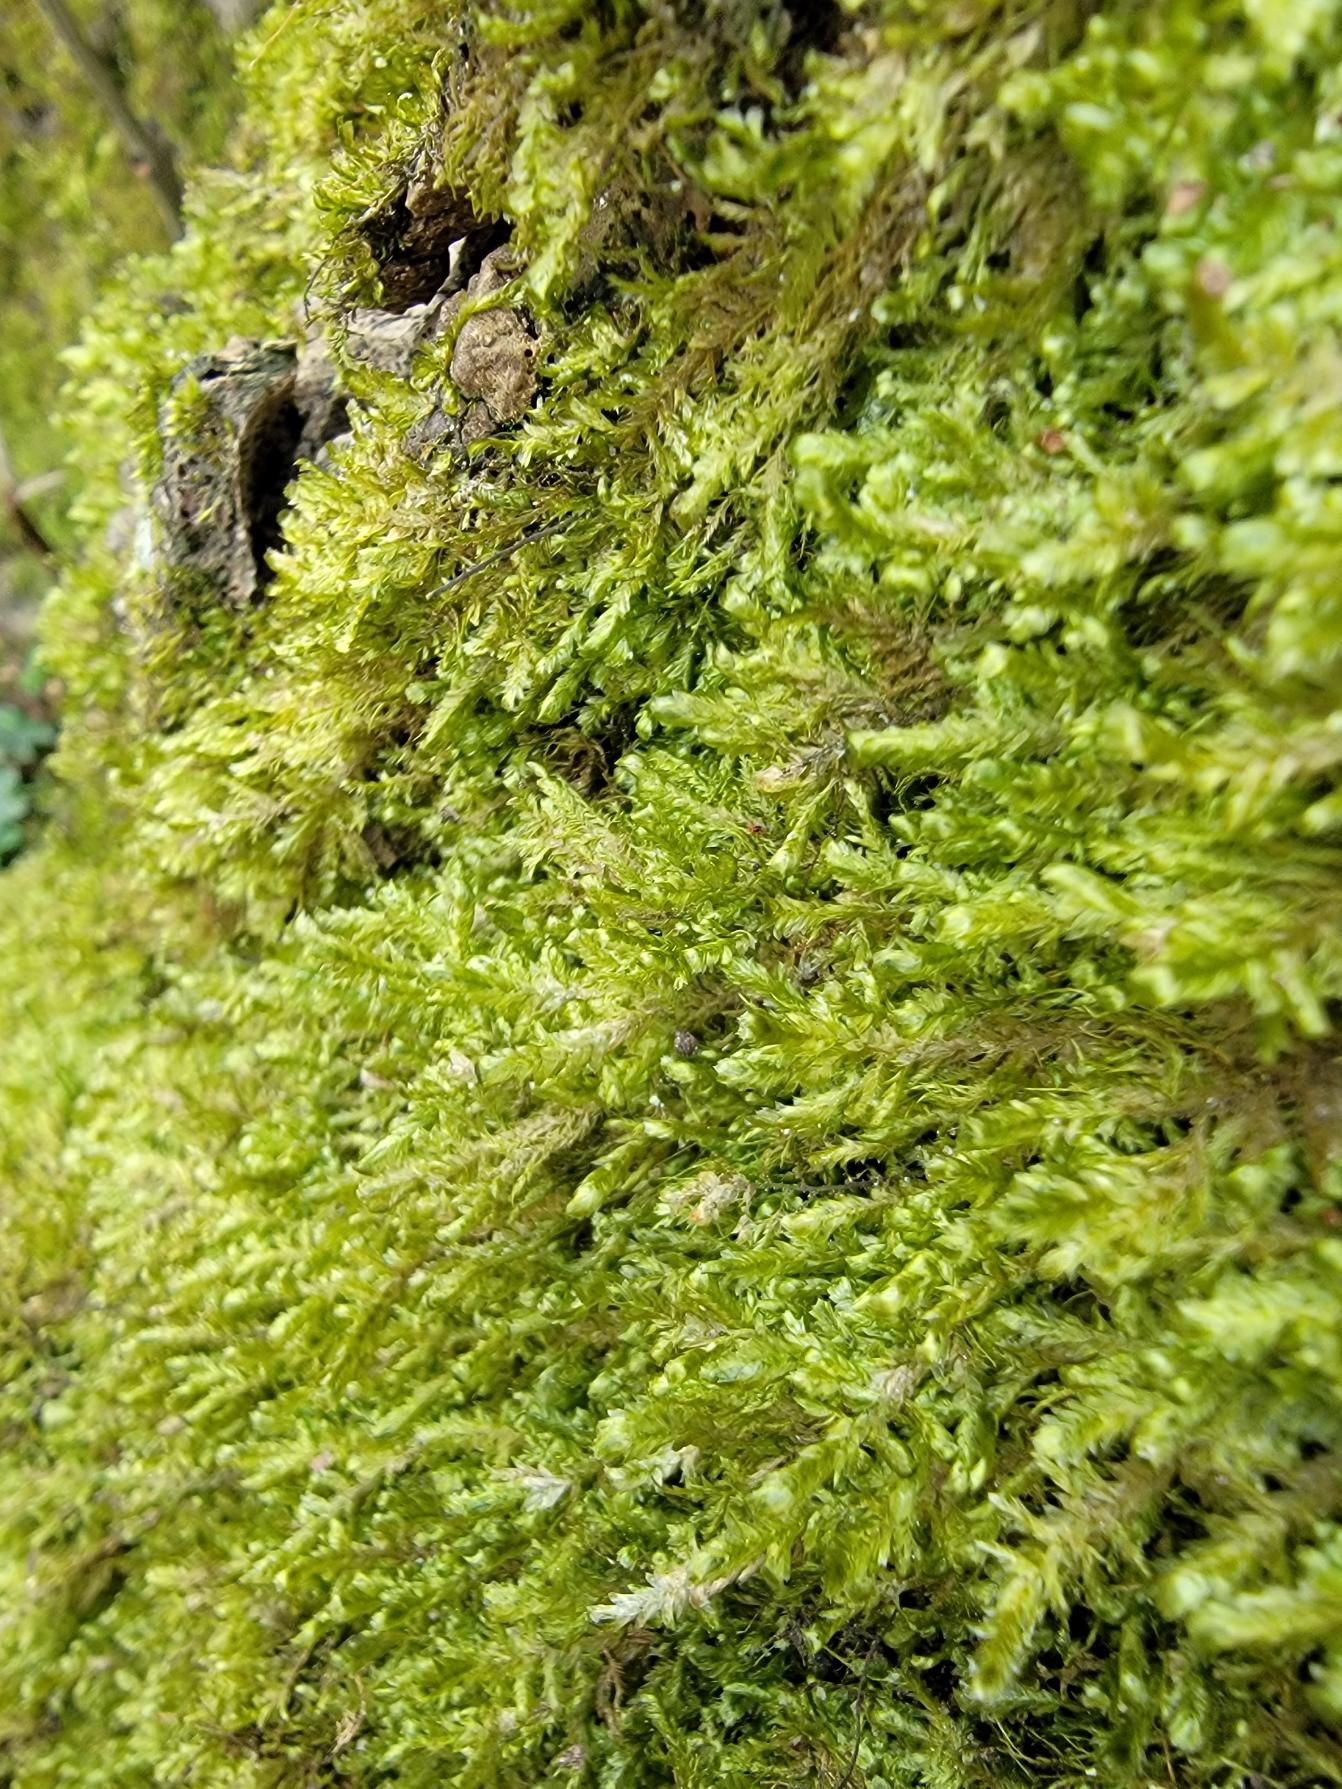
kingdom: Plantae
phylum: Bryophyta
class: Bryopsida
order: Hypnales
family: Neckeraceae
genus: Alleniella
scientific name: Alleniella complanata
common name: Almindelig fladmos
